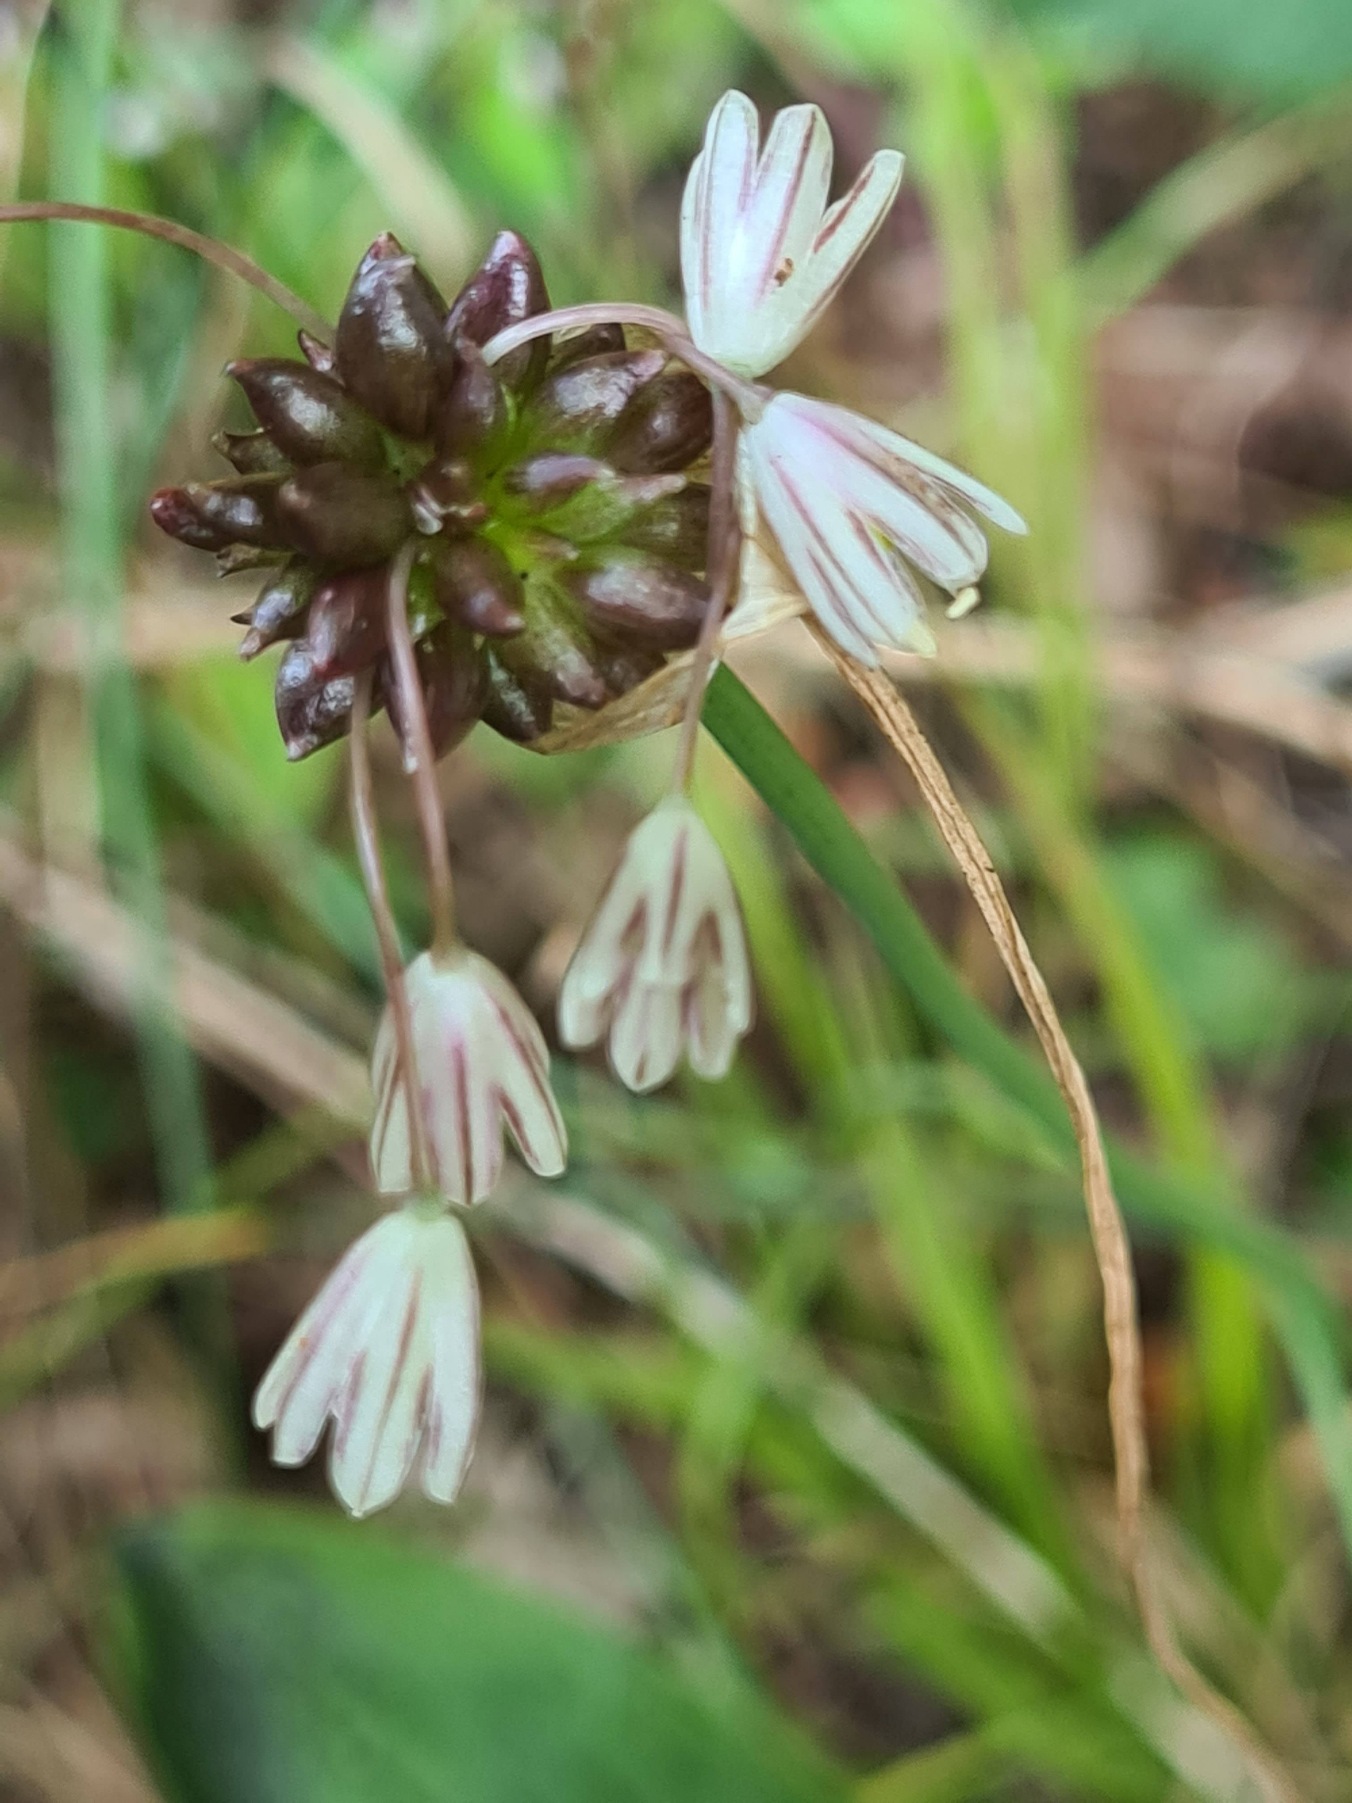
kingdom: Plantae
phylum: Tracheophyta
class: Liliopsida
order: Asparagales
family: Amaryllidaceae
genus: Allium
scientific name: Allium oleraceum
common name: Vild løg
